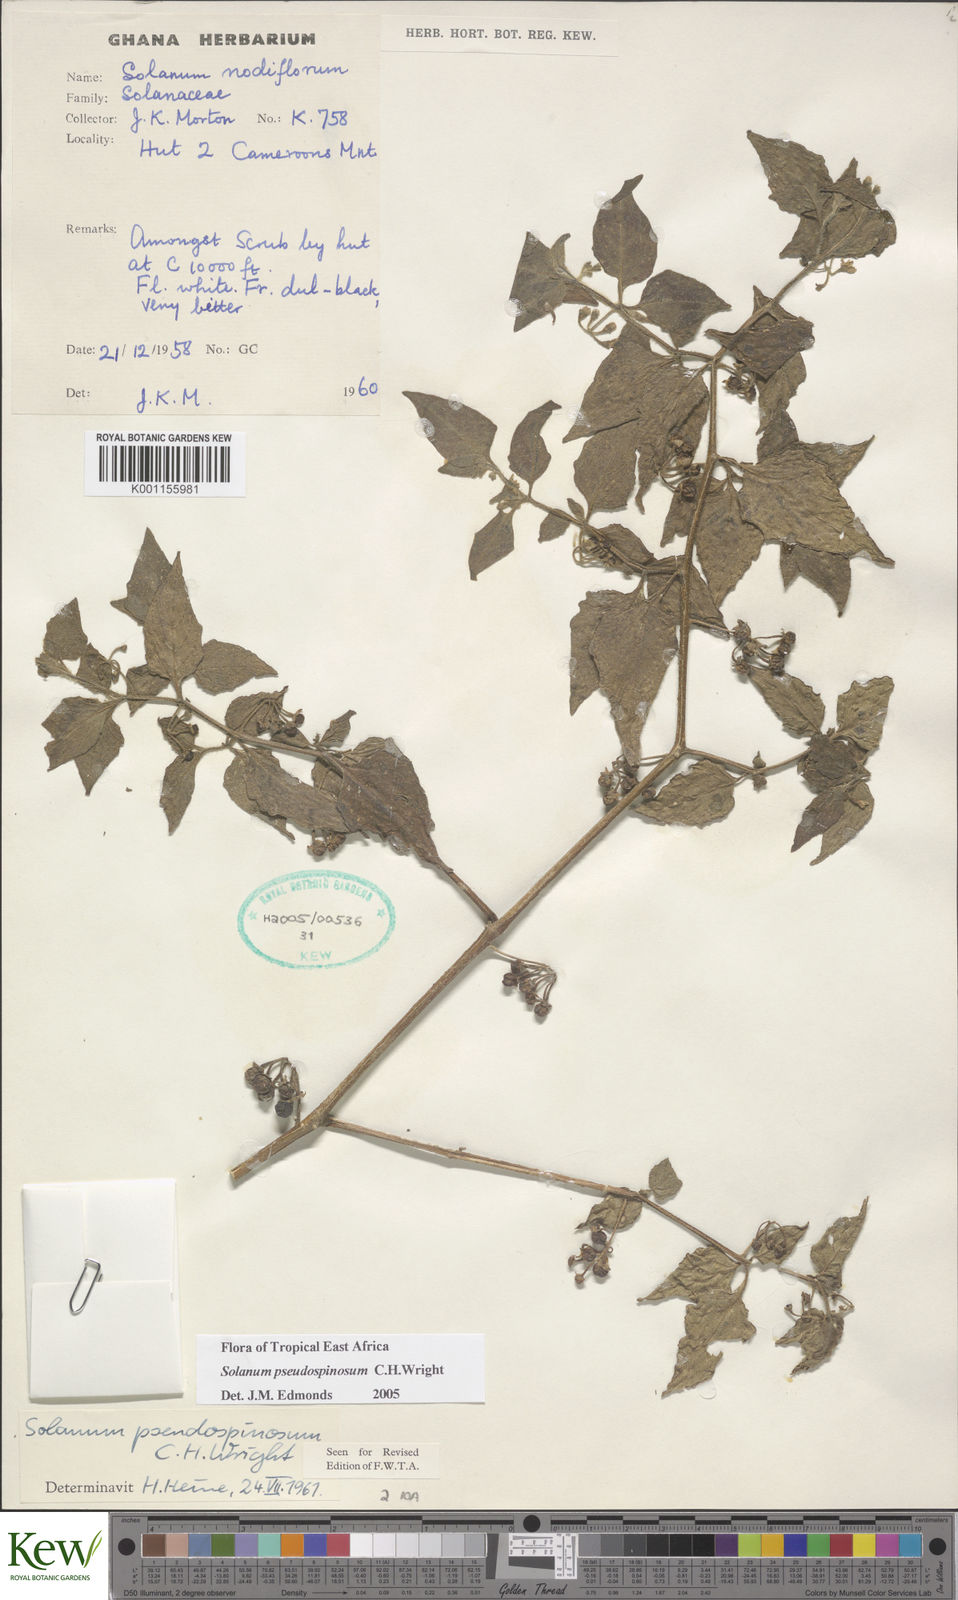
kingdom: Plantae
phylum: Tracheophyta
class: Magnoliopsida
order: Solanales
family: Solanaceae
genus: Solanum
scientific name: Solanum pseudospinosum
